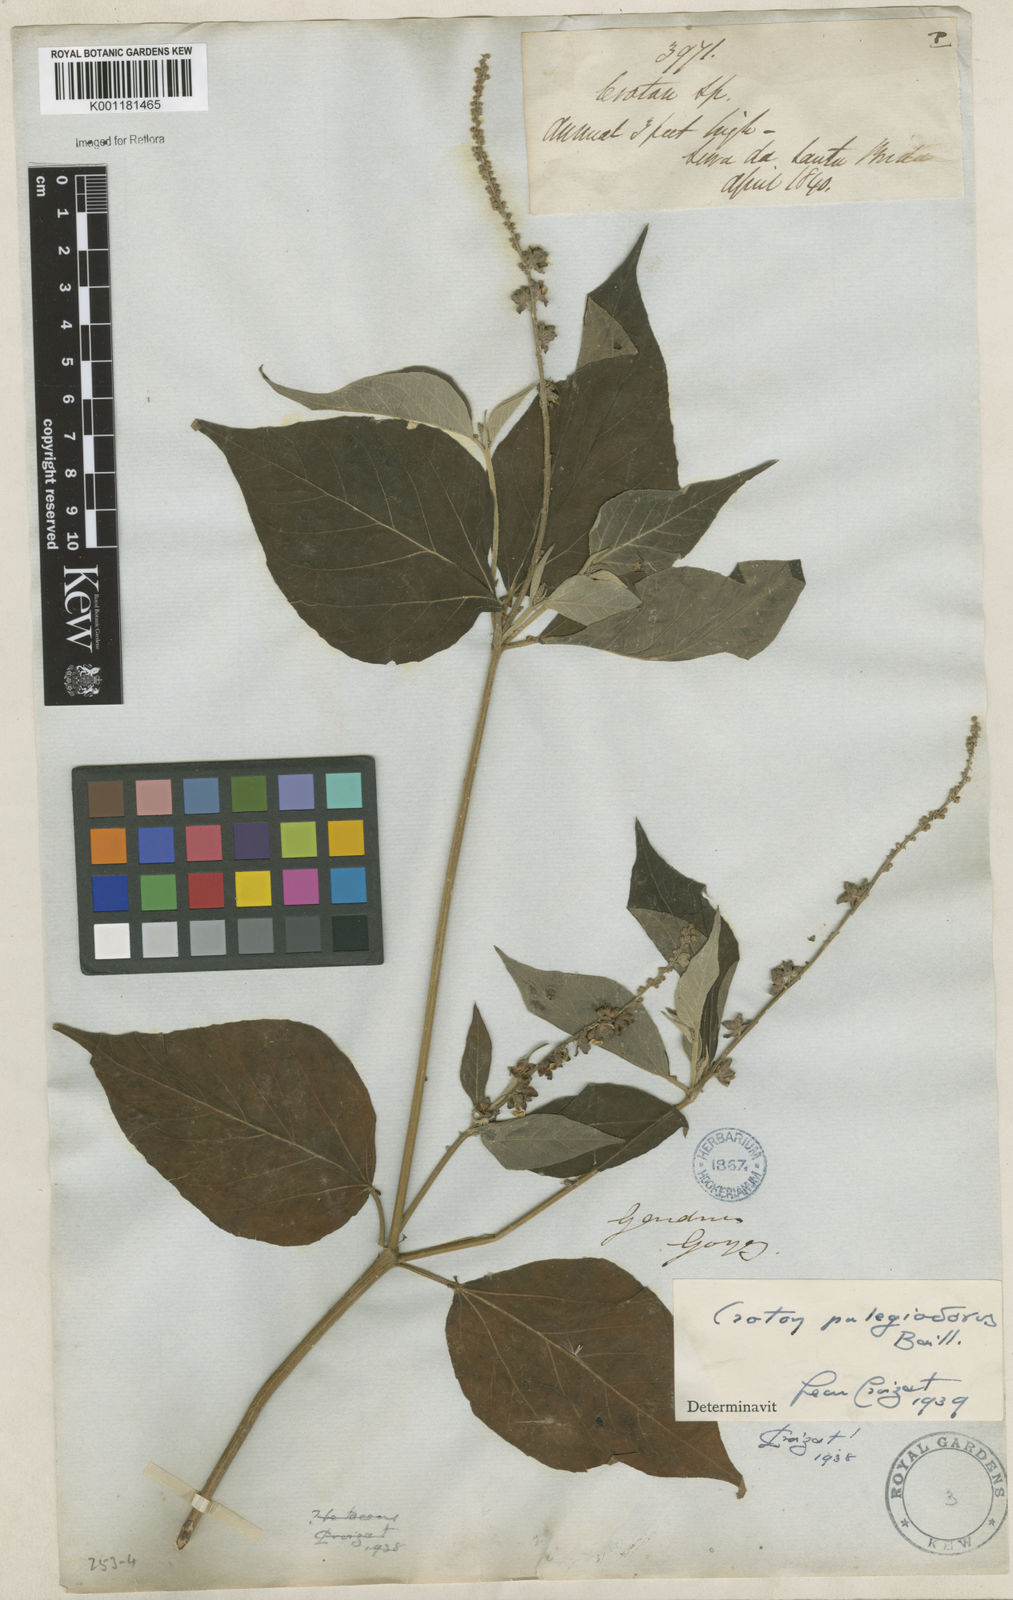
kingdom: Plantae
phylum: Tracheophyta
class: Magnoliopsida
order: Malpighiales
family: Euphorbiaceae
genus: Croton
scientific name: Croton pulegiodorus
